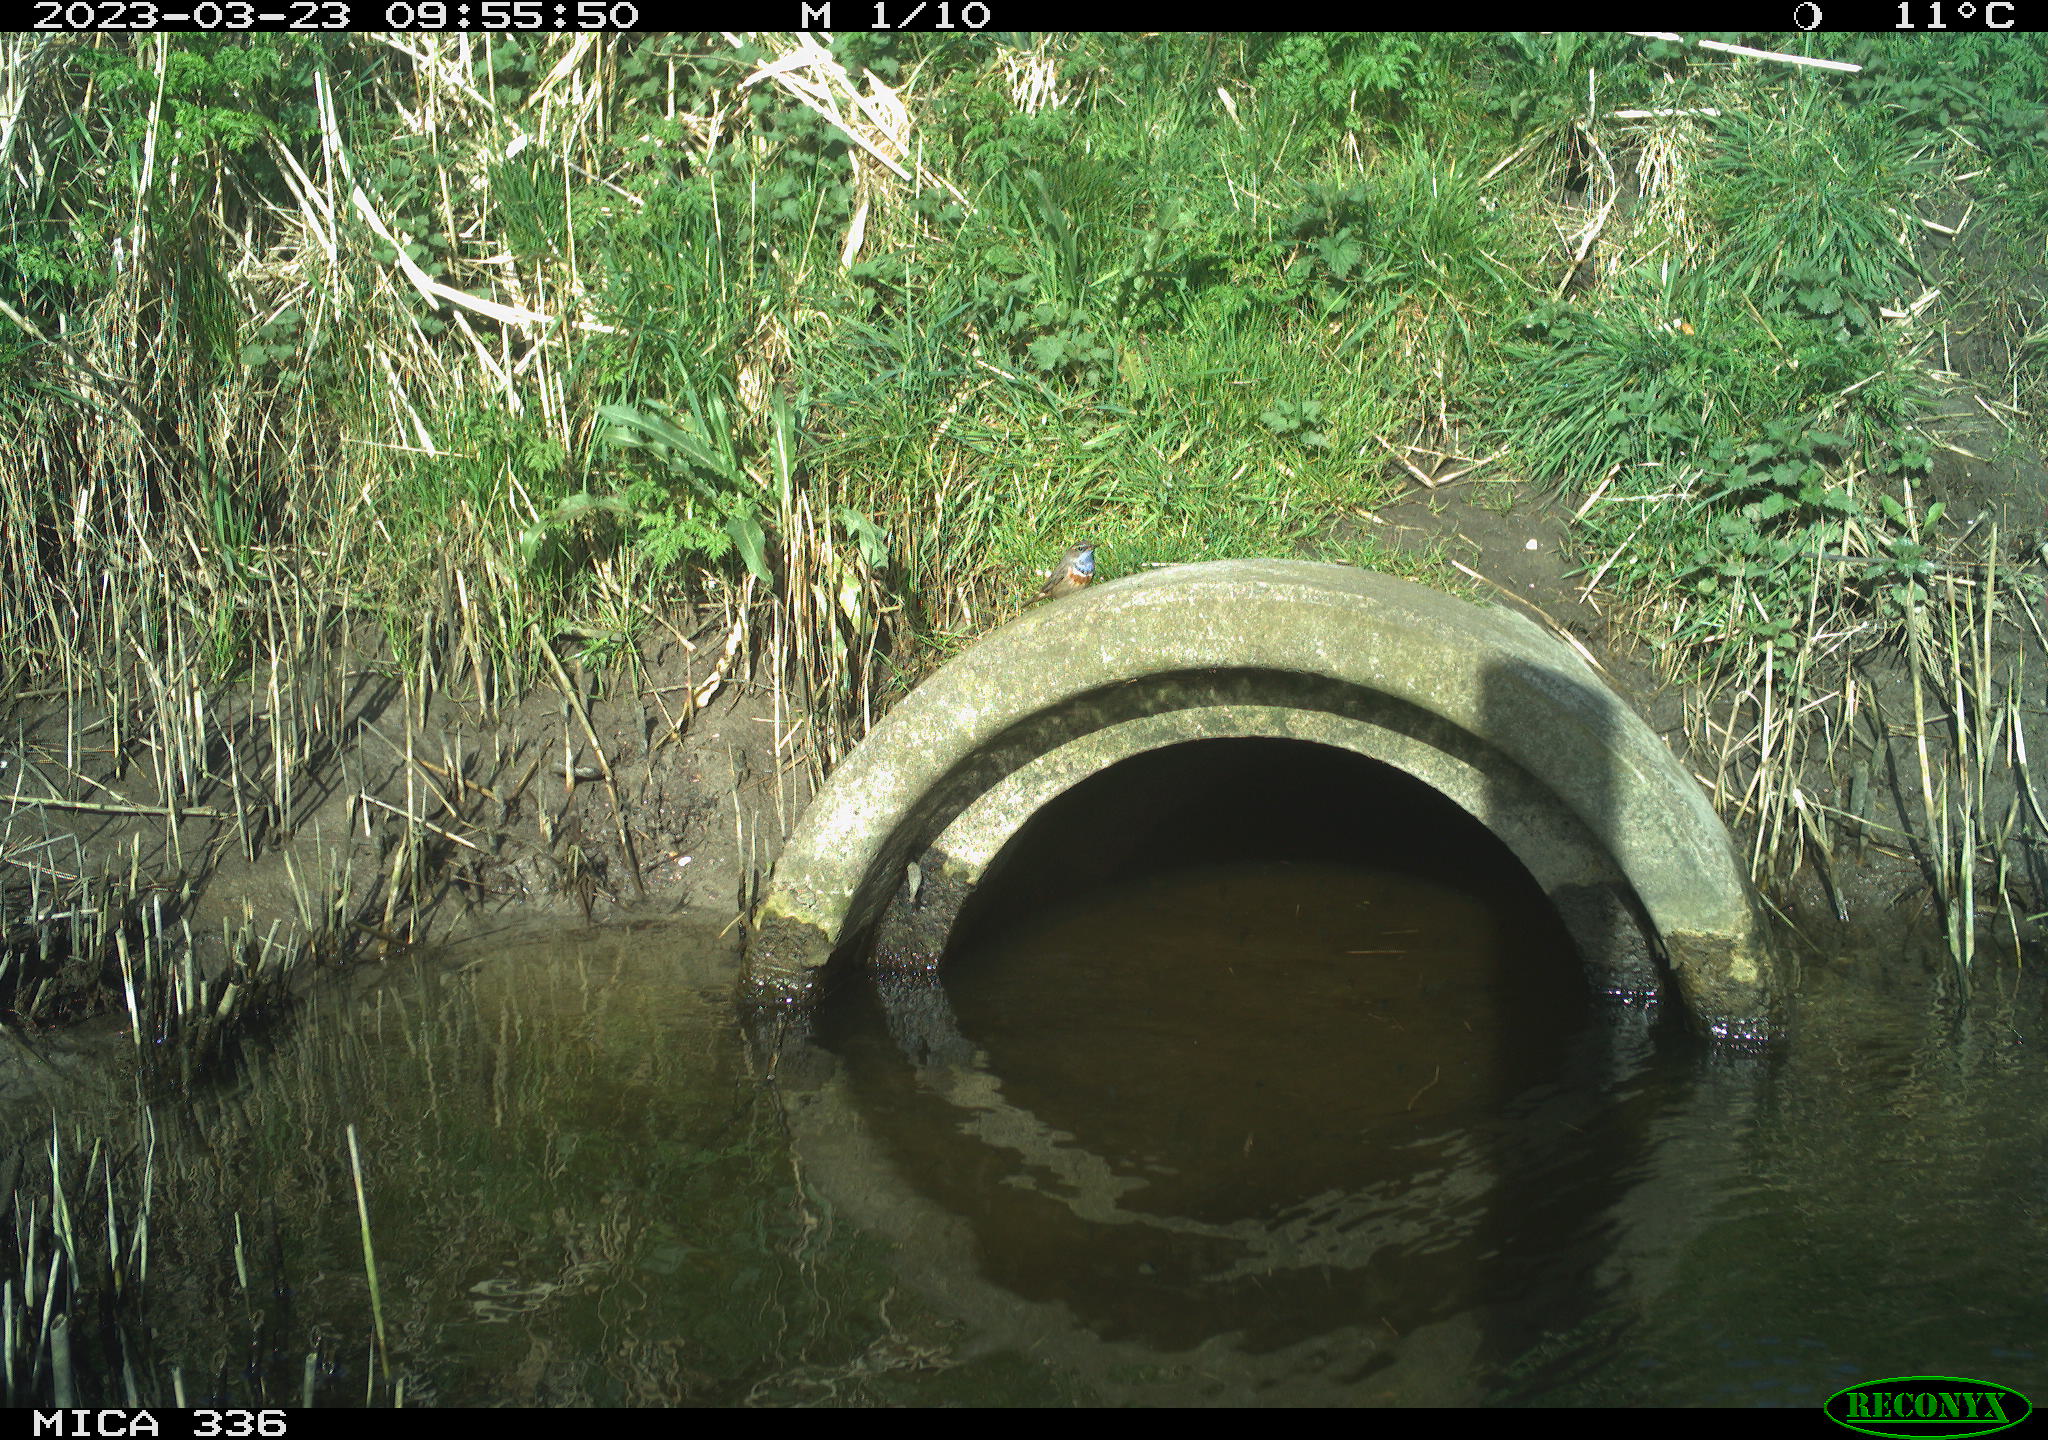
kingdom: Animalia
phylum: Chordata
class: Aves
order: Passeriformes
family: Muscicapidae
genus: Luscinia
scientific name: Luscinia svecica
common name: Bluethroat
